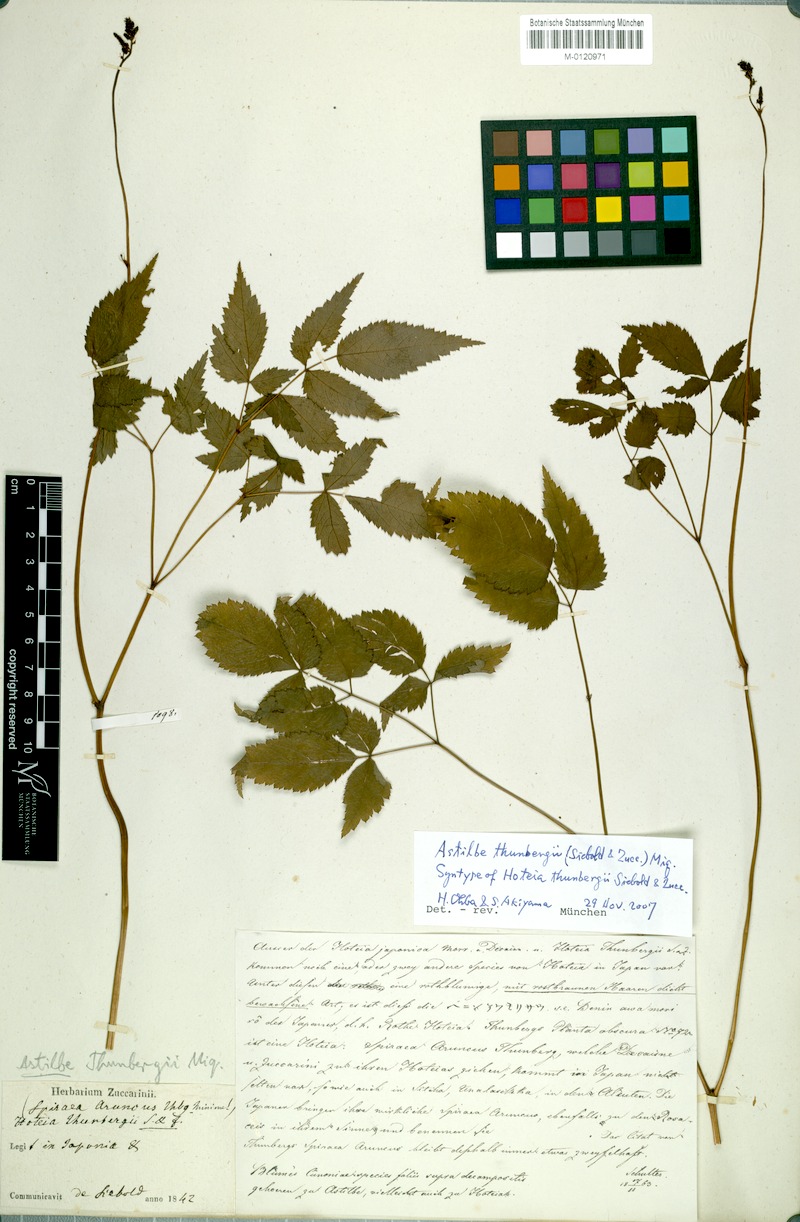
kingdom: Plantae
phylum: Tracheophyta
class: Magnoliopsida
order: Saxifragales
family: Saxifragaceae
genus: Astilbe
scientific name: Astilbe thunbergii
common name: Thunberg's astilbe
